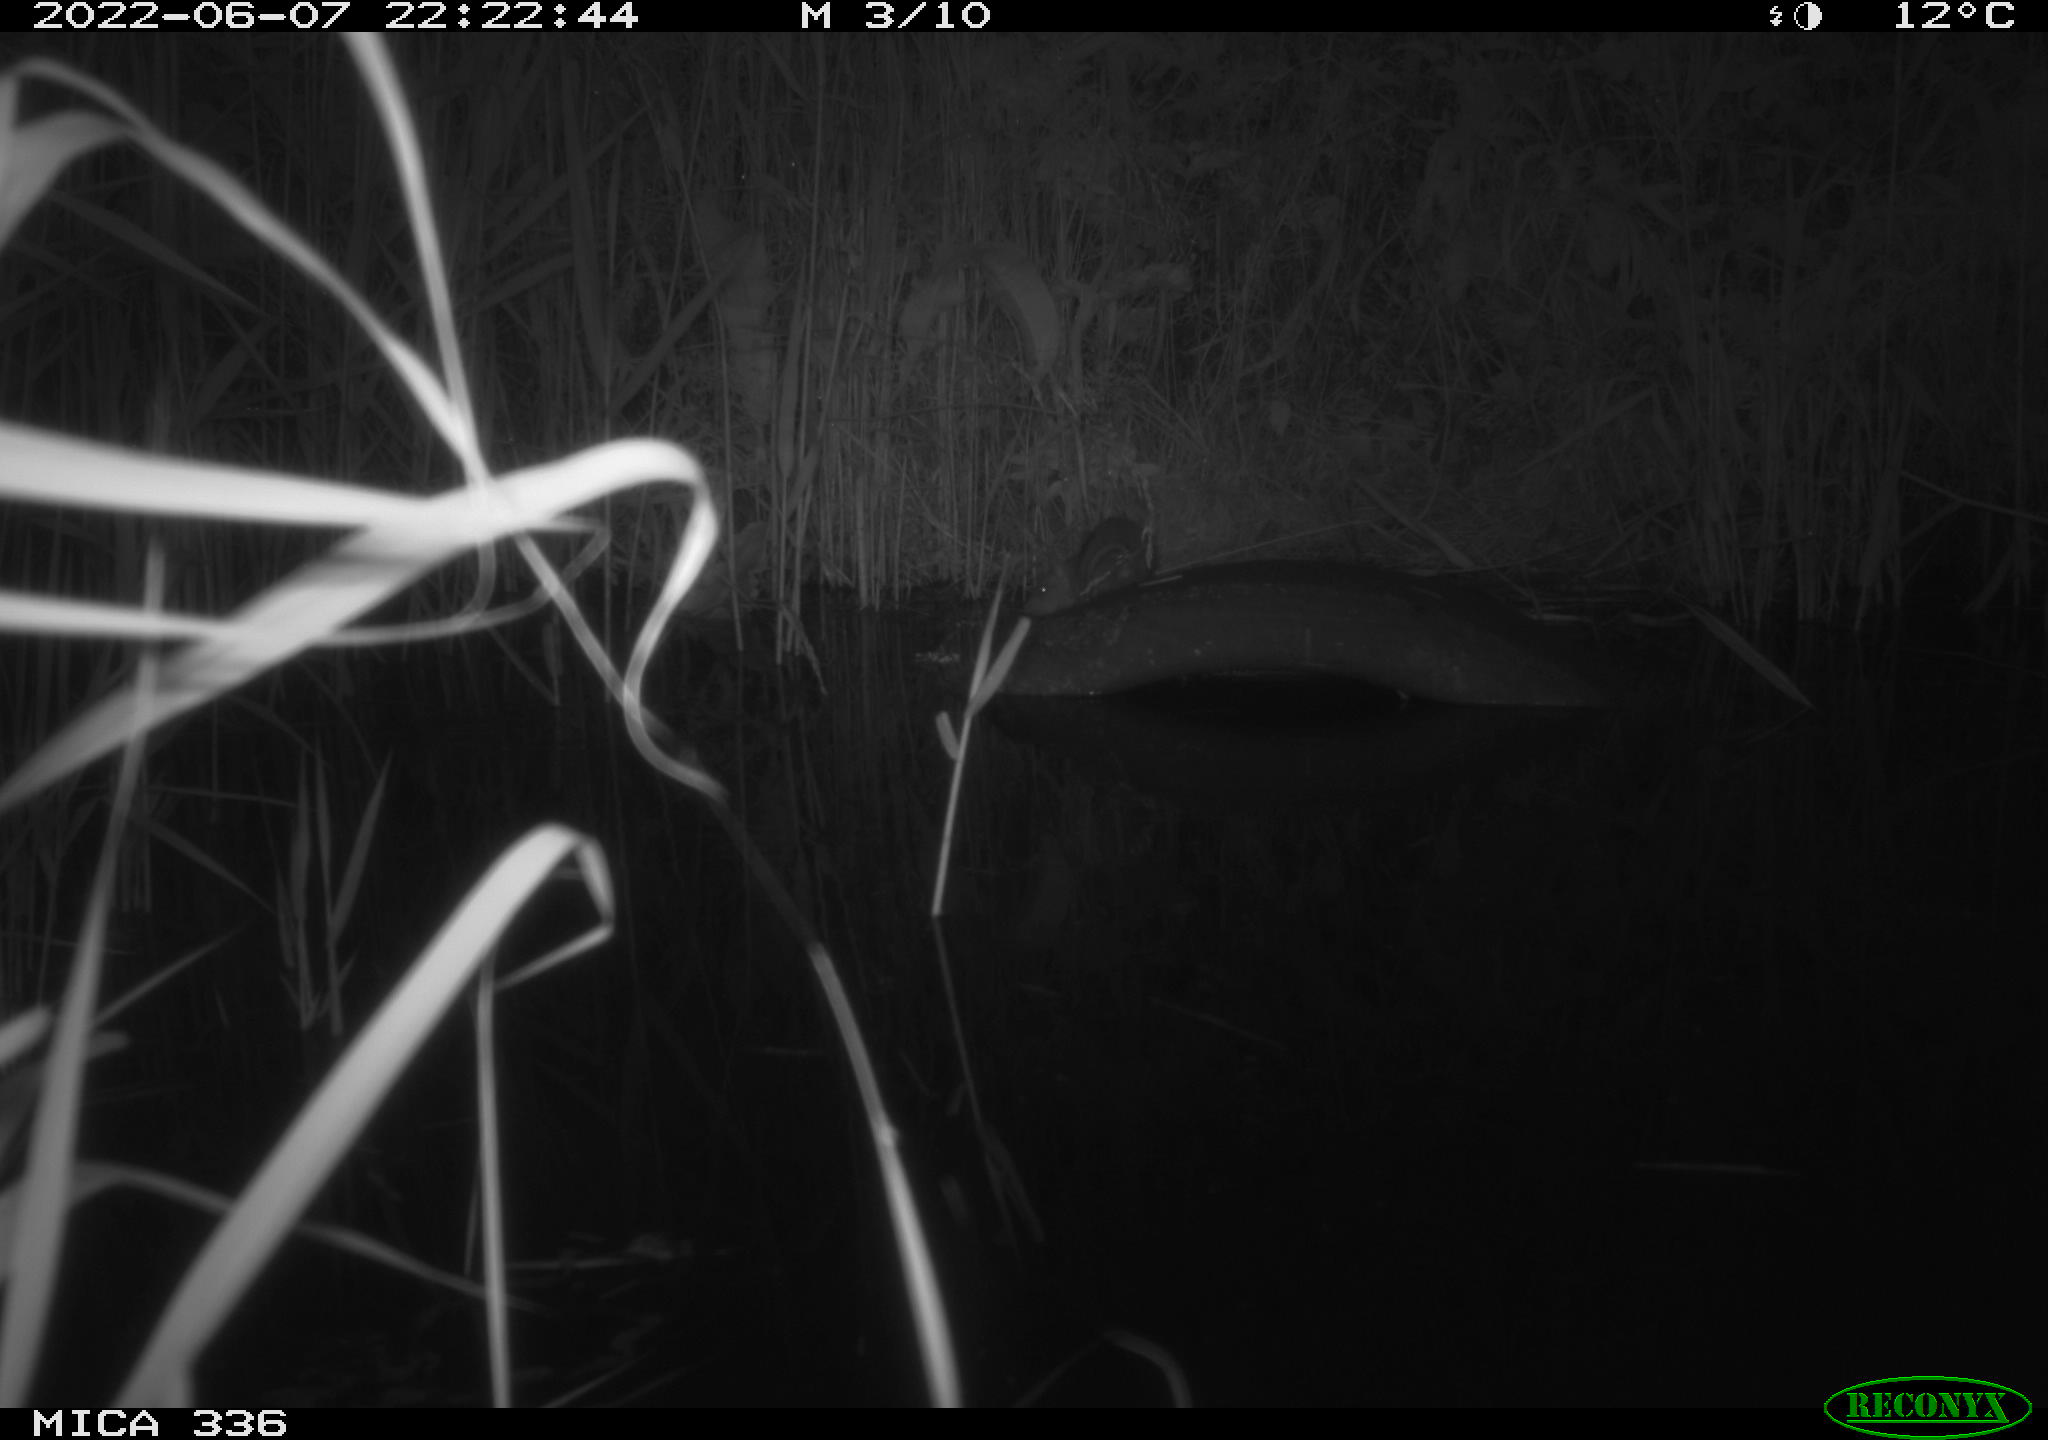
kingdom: Animalia
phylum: Chordata
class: Mammalia
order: Rodentia
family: Muridae
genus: Rattus
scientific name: Rattus norvegicus
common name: Brown rat
